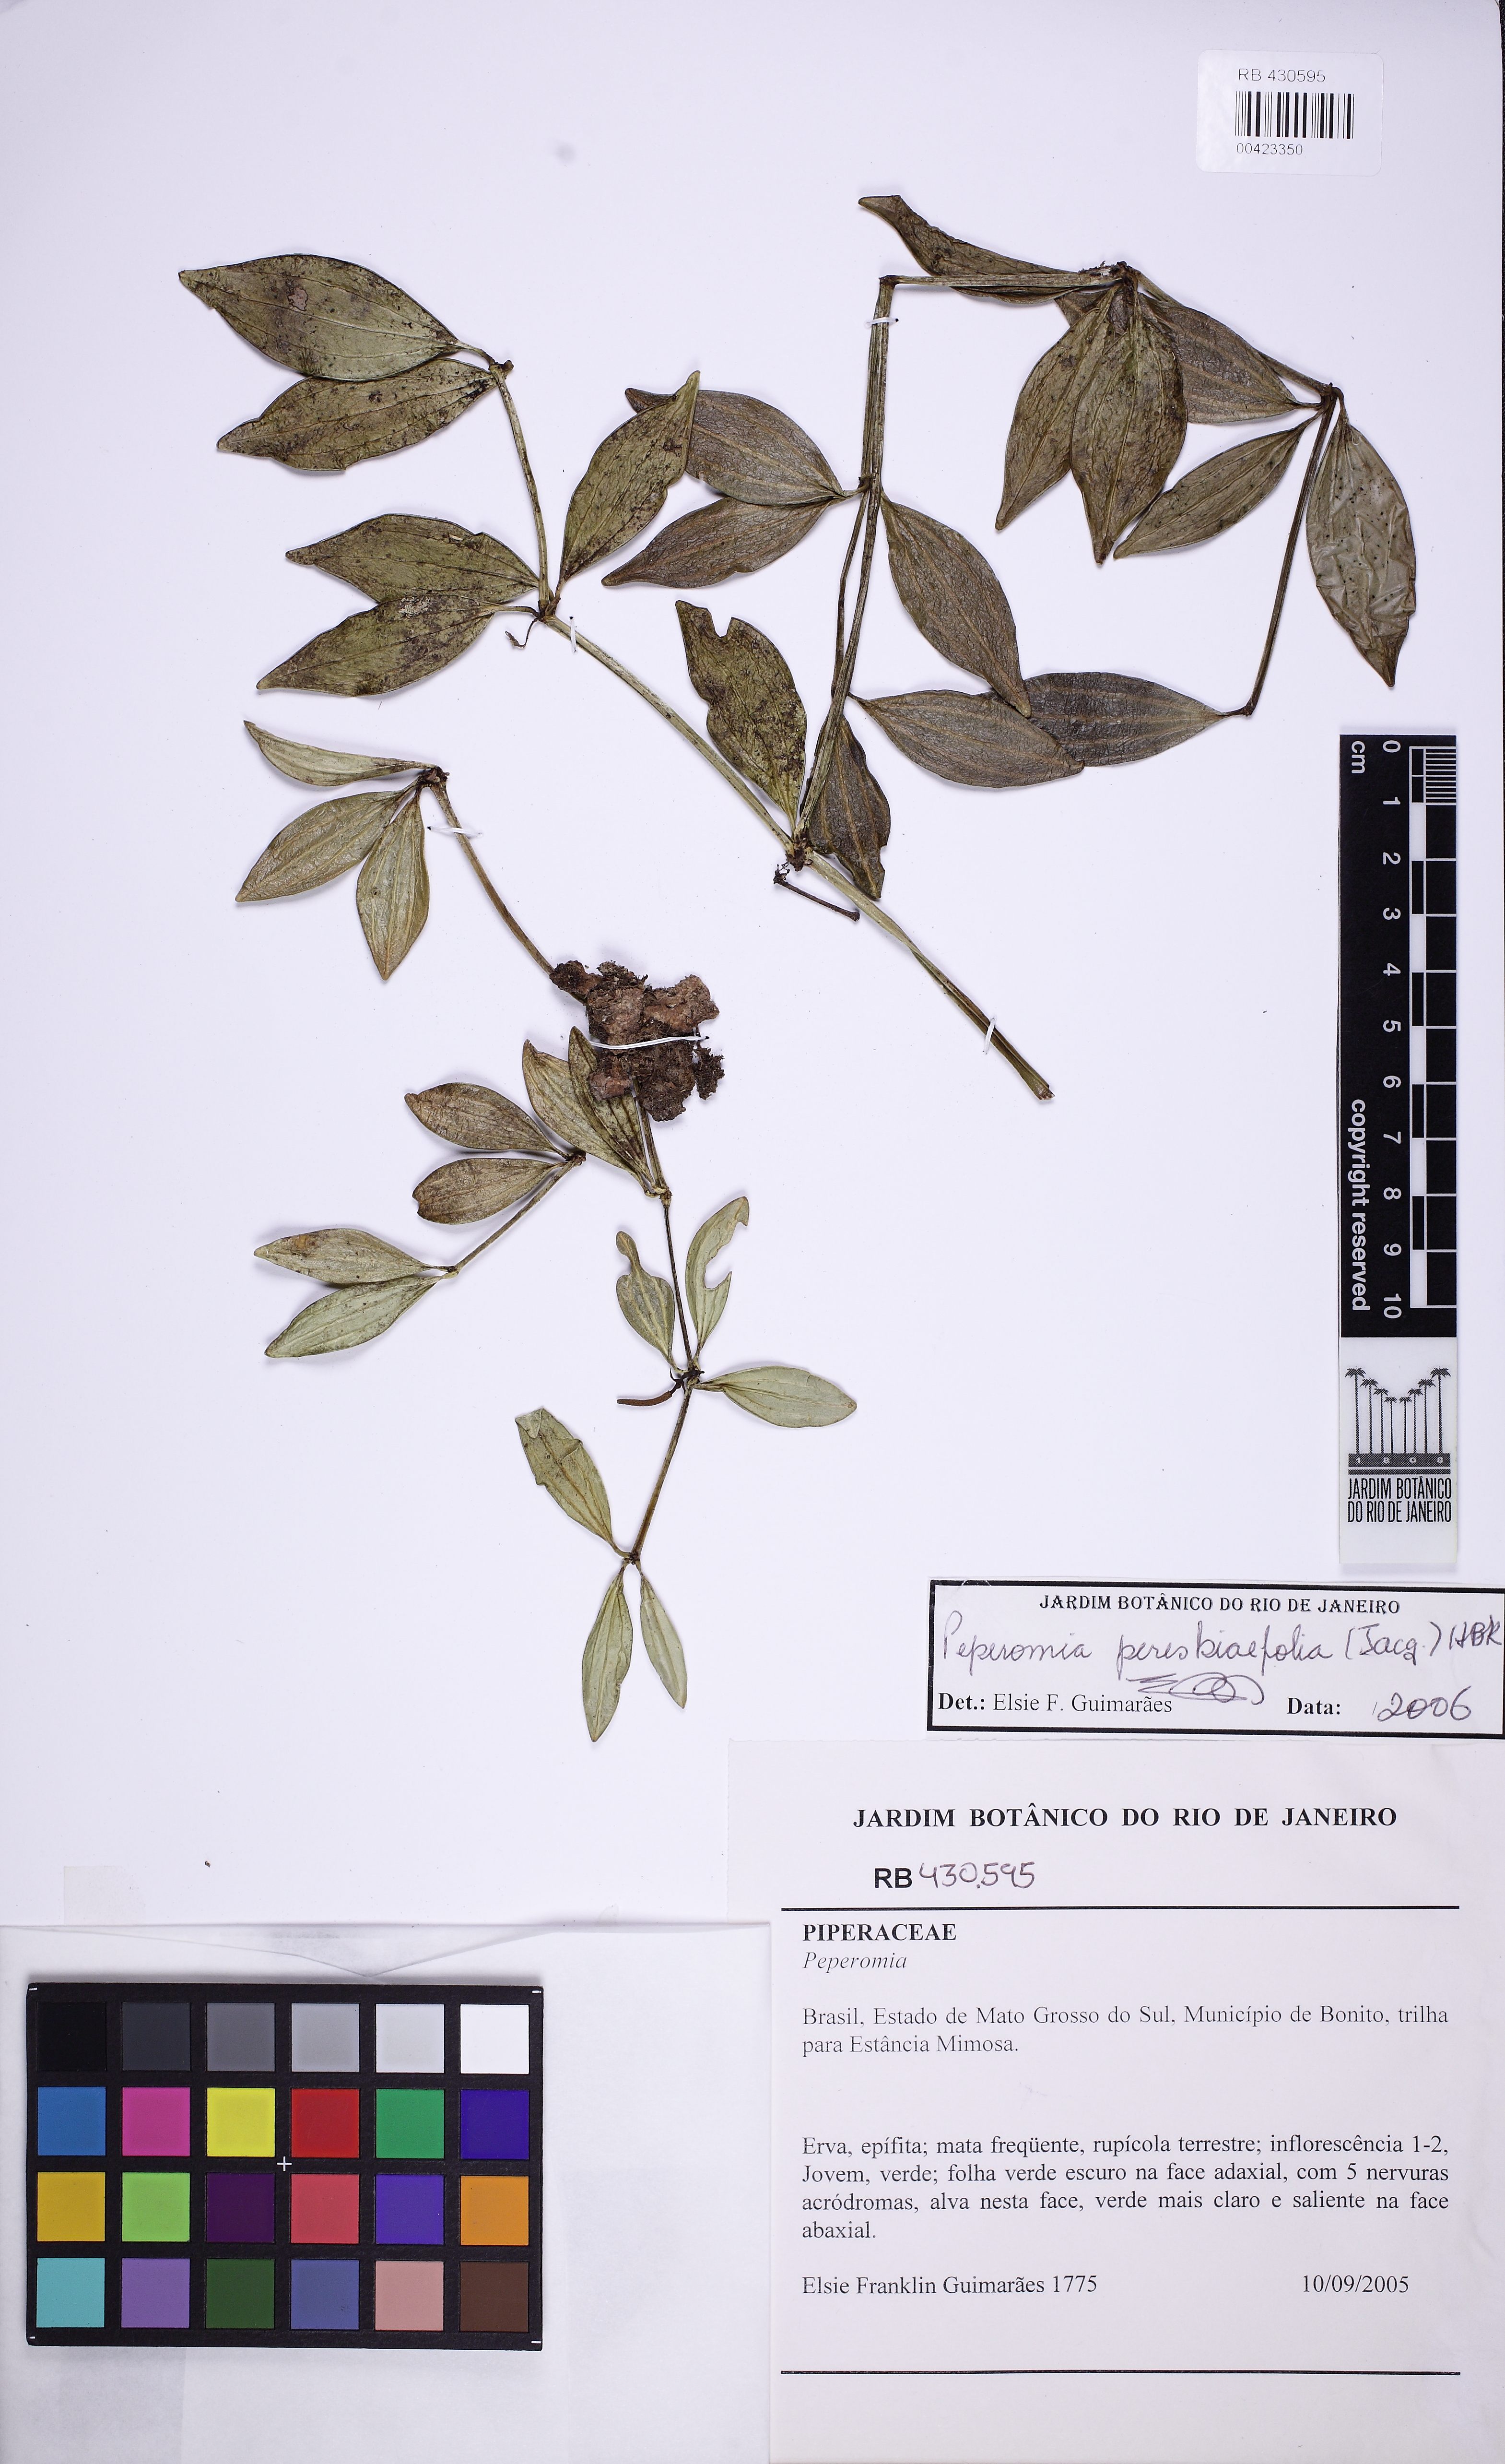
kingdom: Plantae
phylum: Tracheophyta
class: Magnoliopsida
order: Piperales
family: Piperaceae
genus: Peperomia
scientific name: Peperomia tetragona
